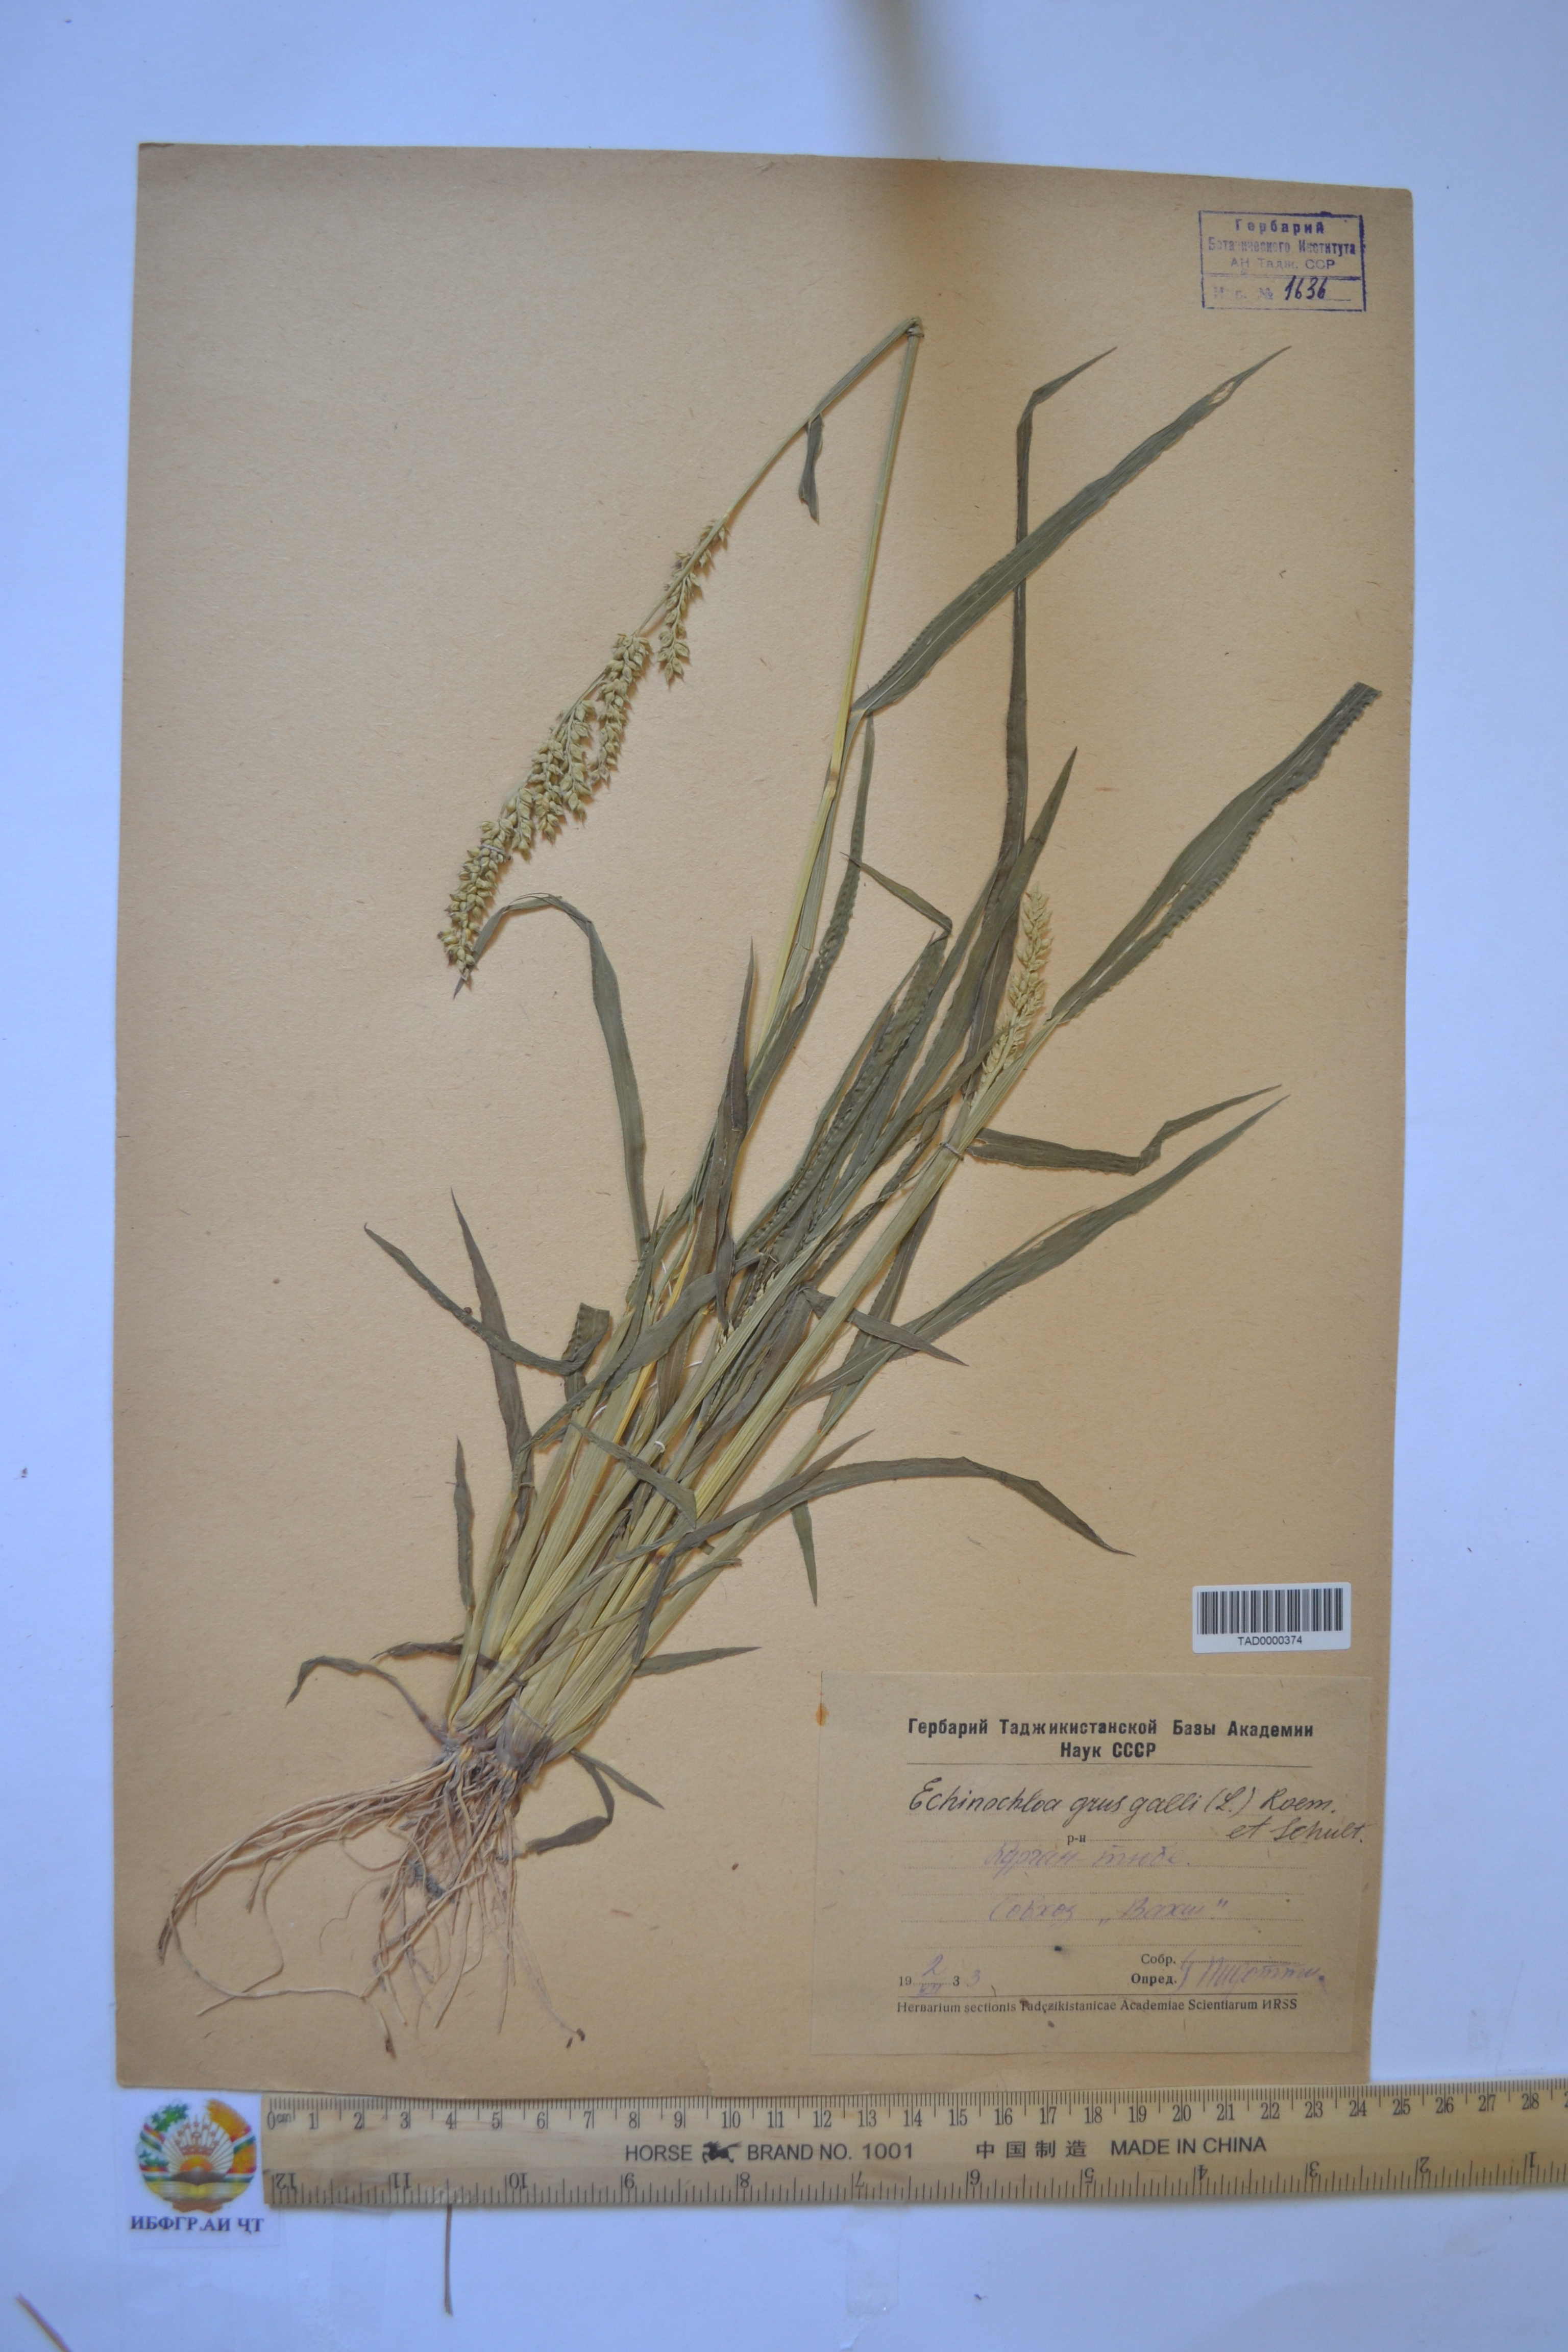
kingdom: Plantae
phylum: Tracheophyta
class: Liliopsida
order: Poales
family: Poaceae
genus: Echinochloa
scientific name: Echinochloa crus-galli
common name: Cockspur
